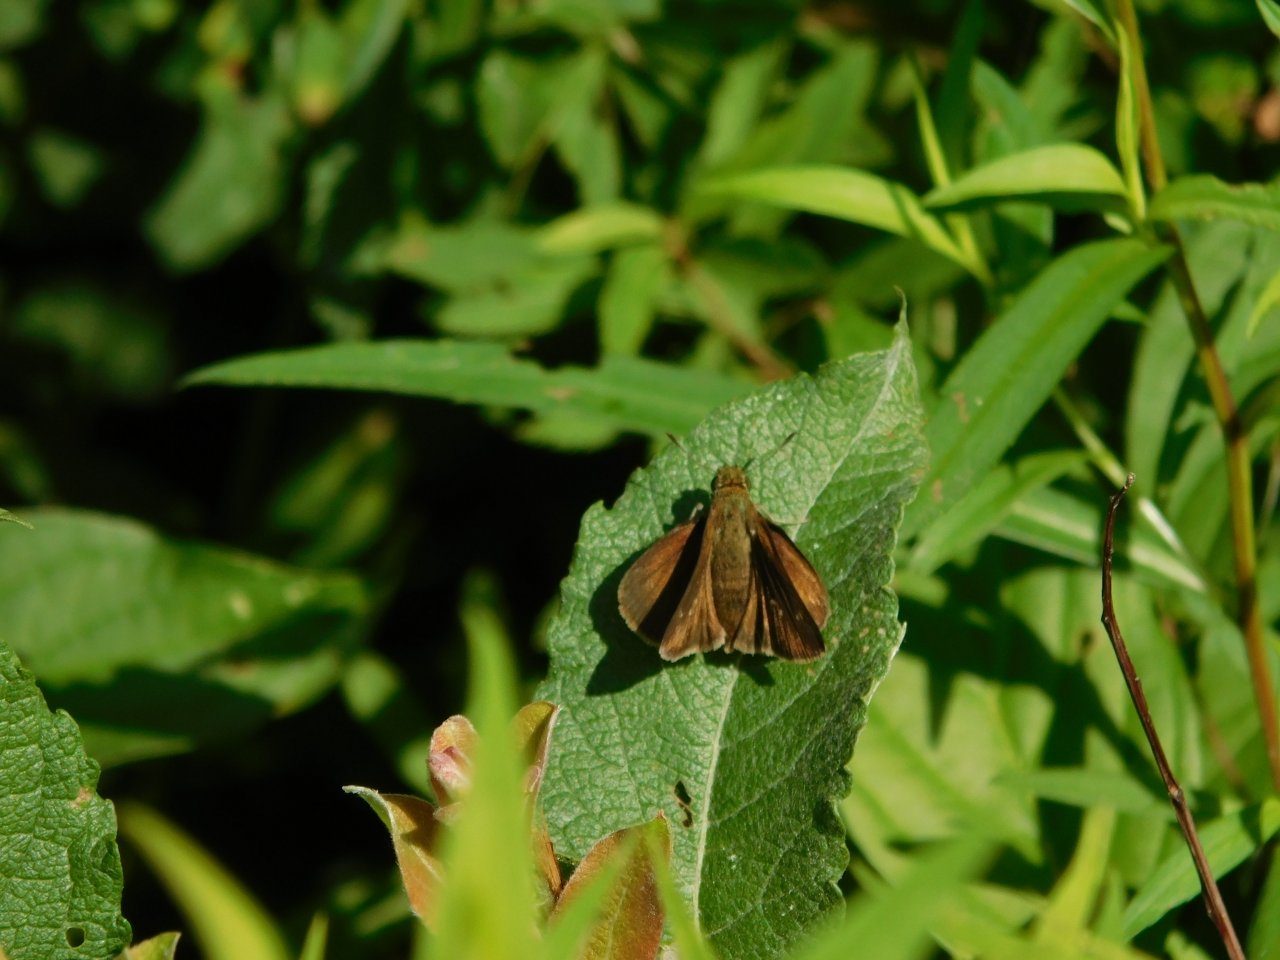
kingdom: Animalia
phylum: Arthropoda
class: Insecta
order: Lepidoptera
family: Hesperiidae
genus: Euphyes
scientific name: Euphyes vestris
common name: Dun Skipper
